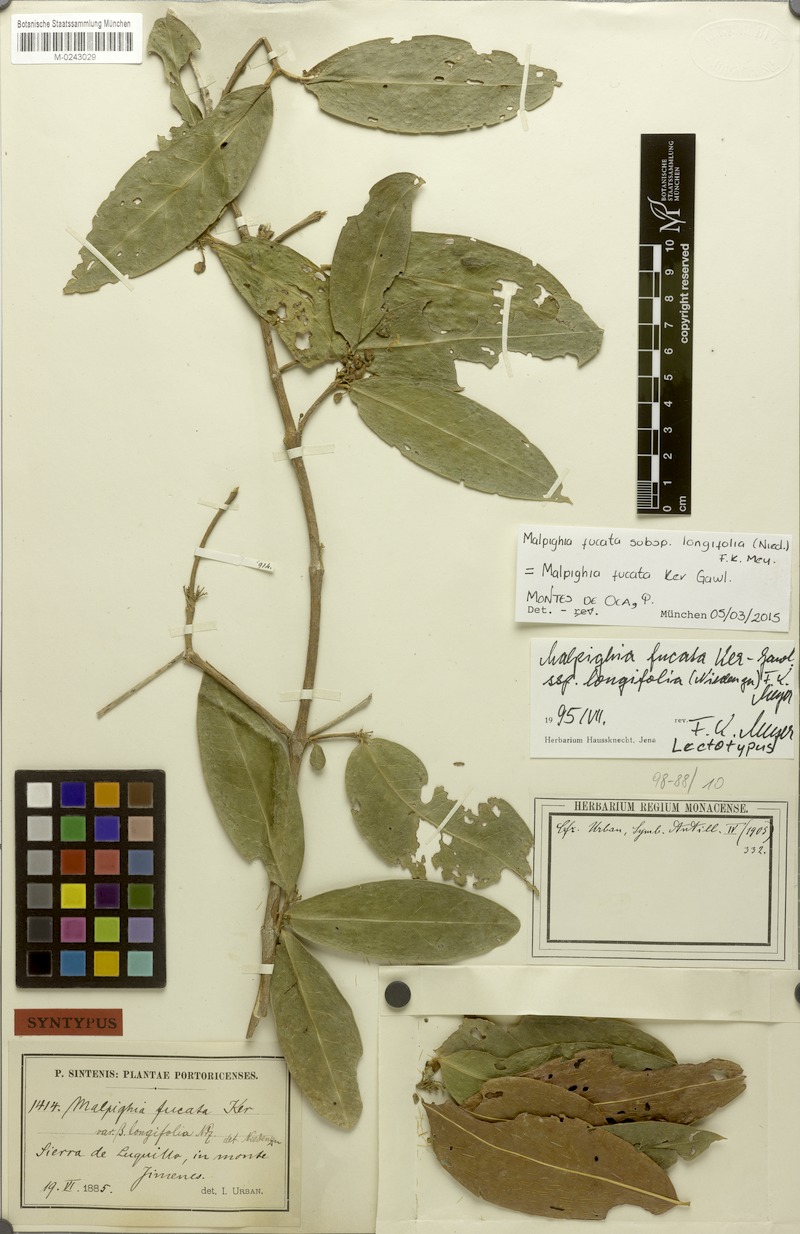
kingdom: Plantae
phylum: Tracheophyta
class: Magnoliopsida
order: Malpighiales
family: Malpighiaceae
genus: Malpighia
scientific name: Malpighia fucata
